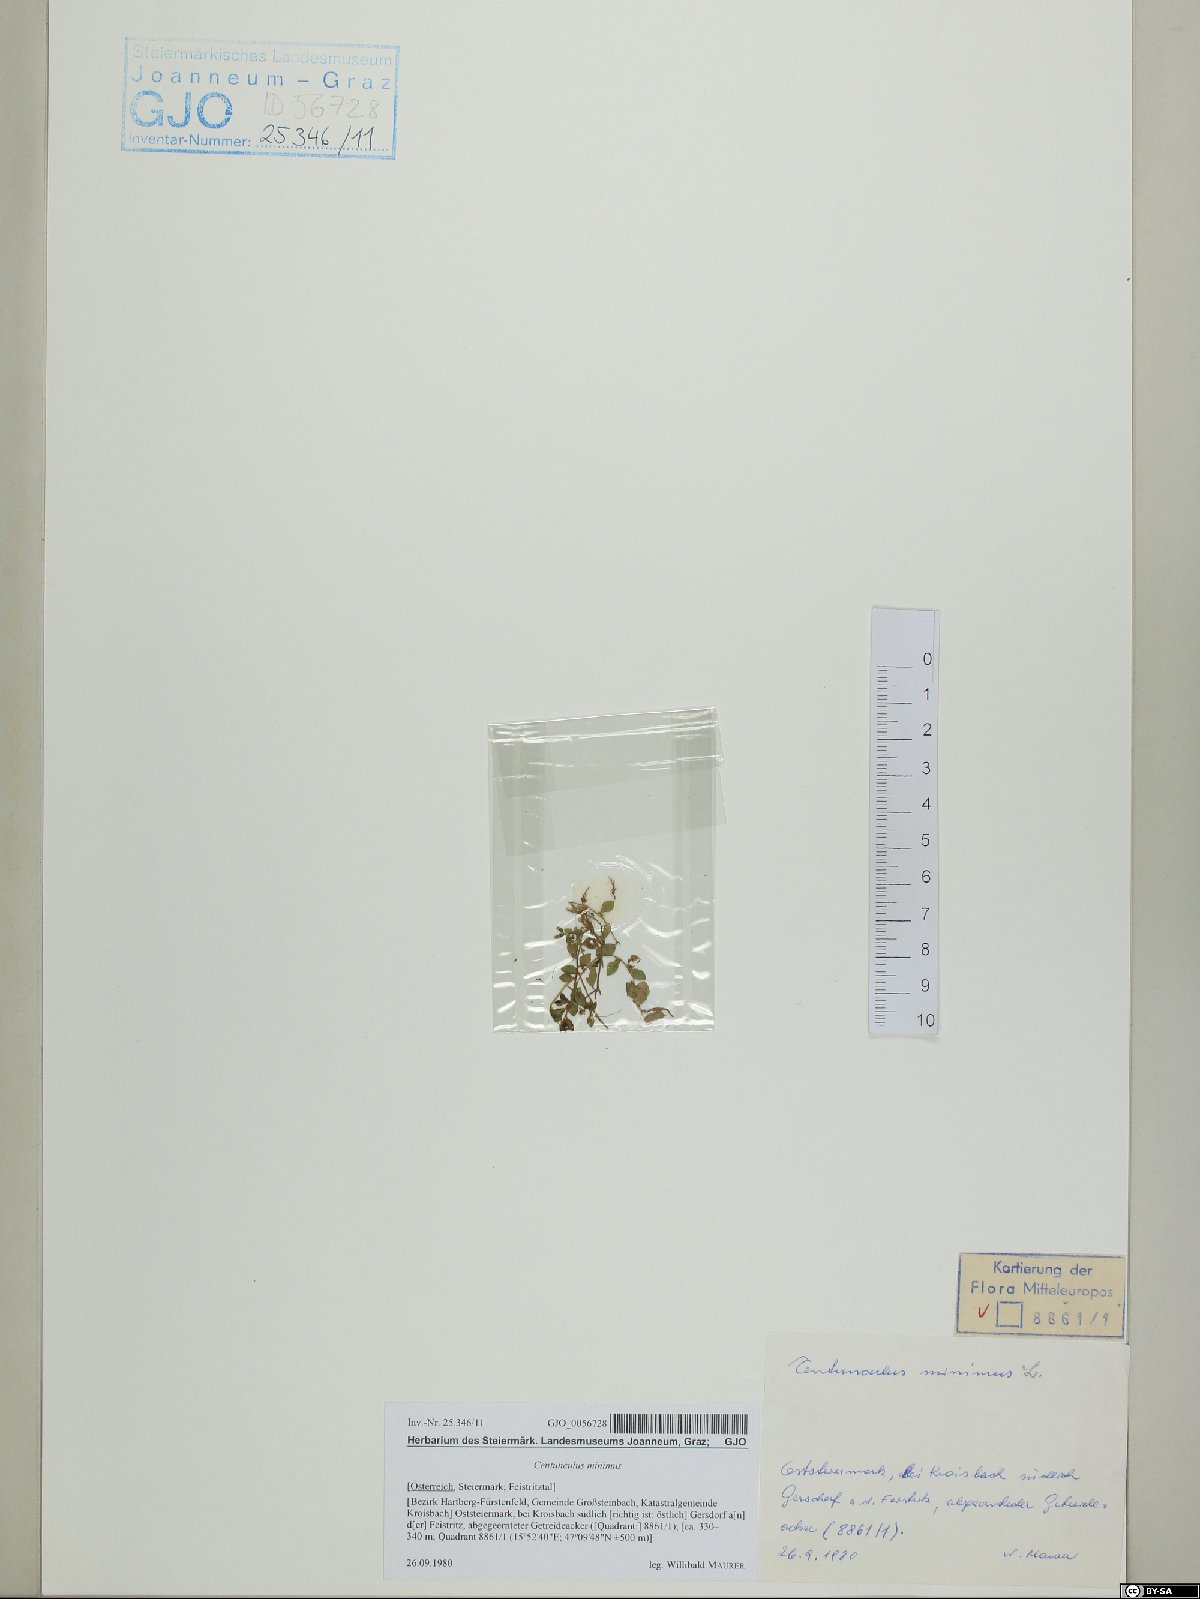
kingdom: Plantae
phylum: Tracheophyta
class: Magnoliopsida
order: Ericales
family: Primulaceae
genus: Lysimachia
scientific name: Lysimachia minima
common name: Chaffweed
